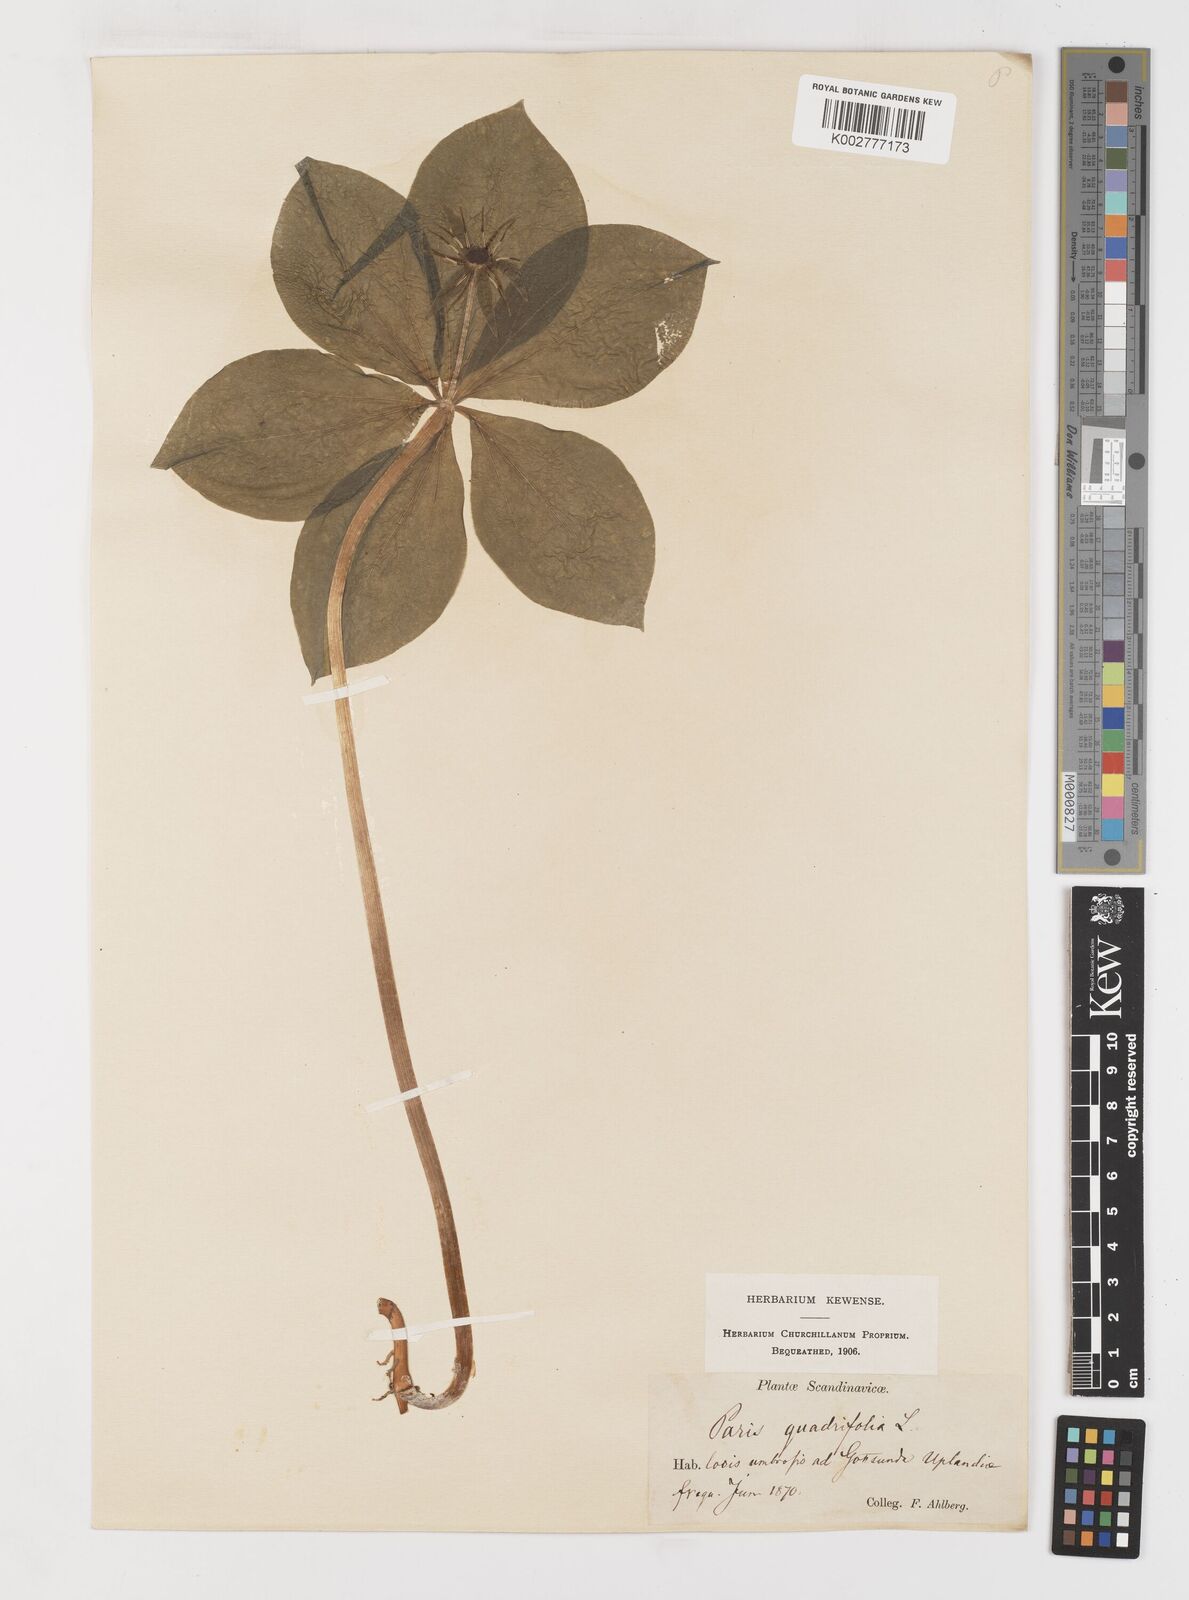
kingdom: Plantae
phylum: Tracheophyta
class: Liliopsida
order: Liliales
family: Melanthiaceae
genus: Paris
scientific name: Paris quadrifolia
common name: Herb-paris
